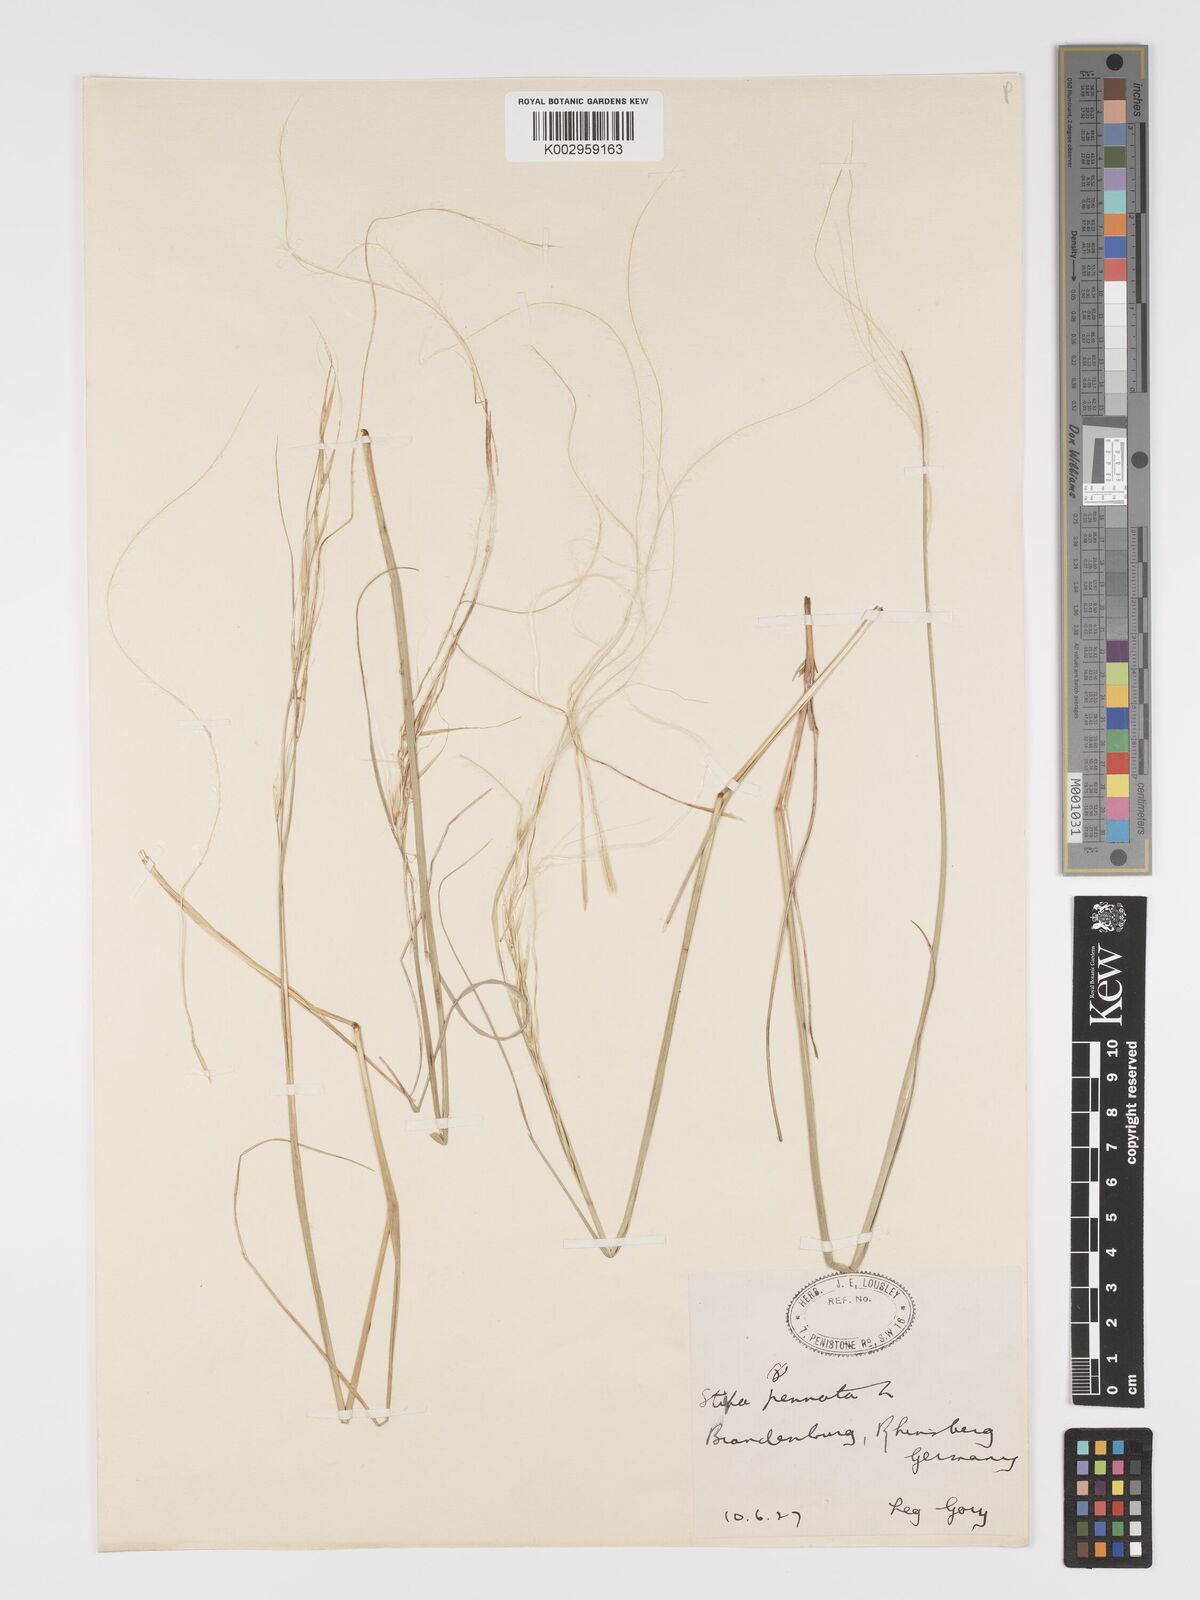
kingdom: Plantae
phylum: Tracheophyta
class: Liliopsida
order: Poales
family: Poaceae
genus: Stipa
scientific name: Stipa pennata
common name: European feather grass
